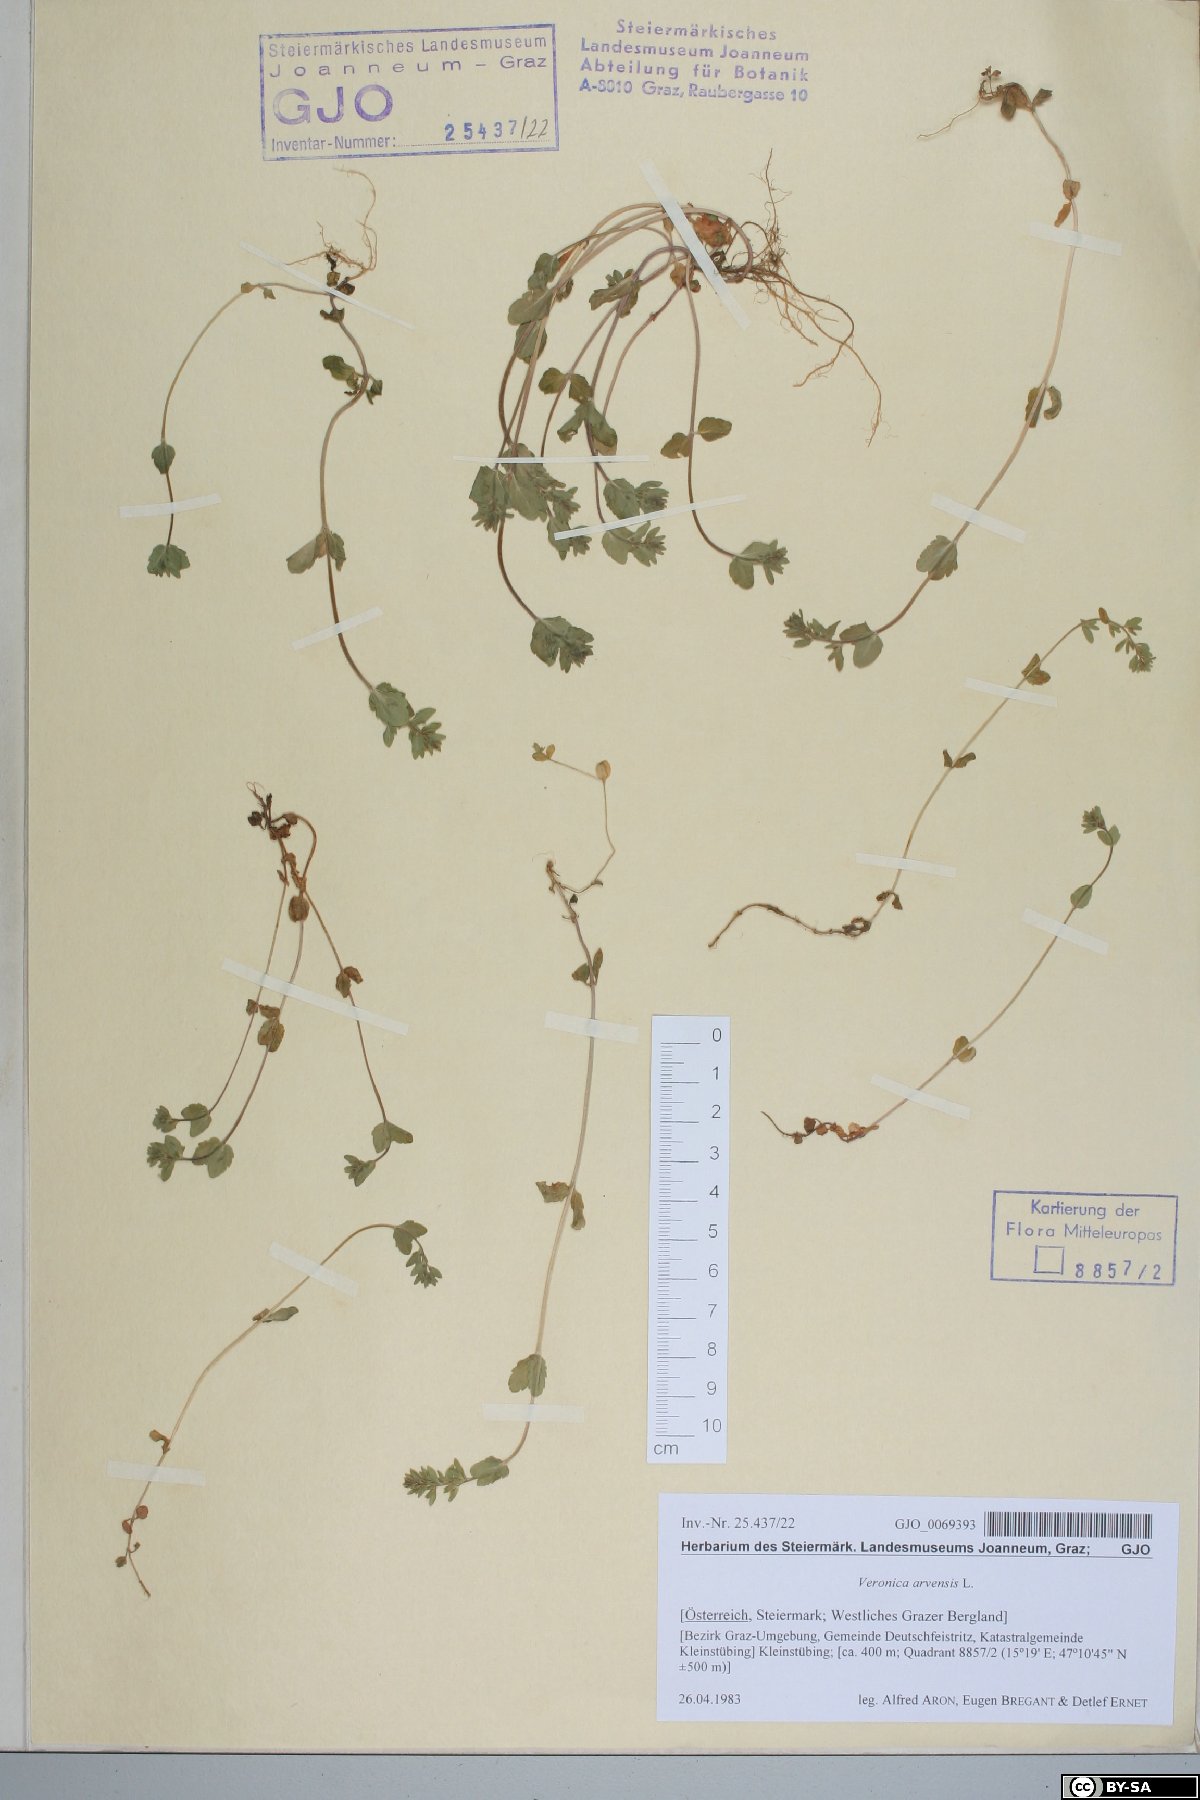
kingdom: Plantae
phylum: Tracheophyta
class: Magnoliopsida
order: Lamiales
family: Plantaginaceae
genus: Veronica
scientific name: Veronica arvensis
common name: Corn speedwell
